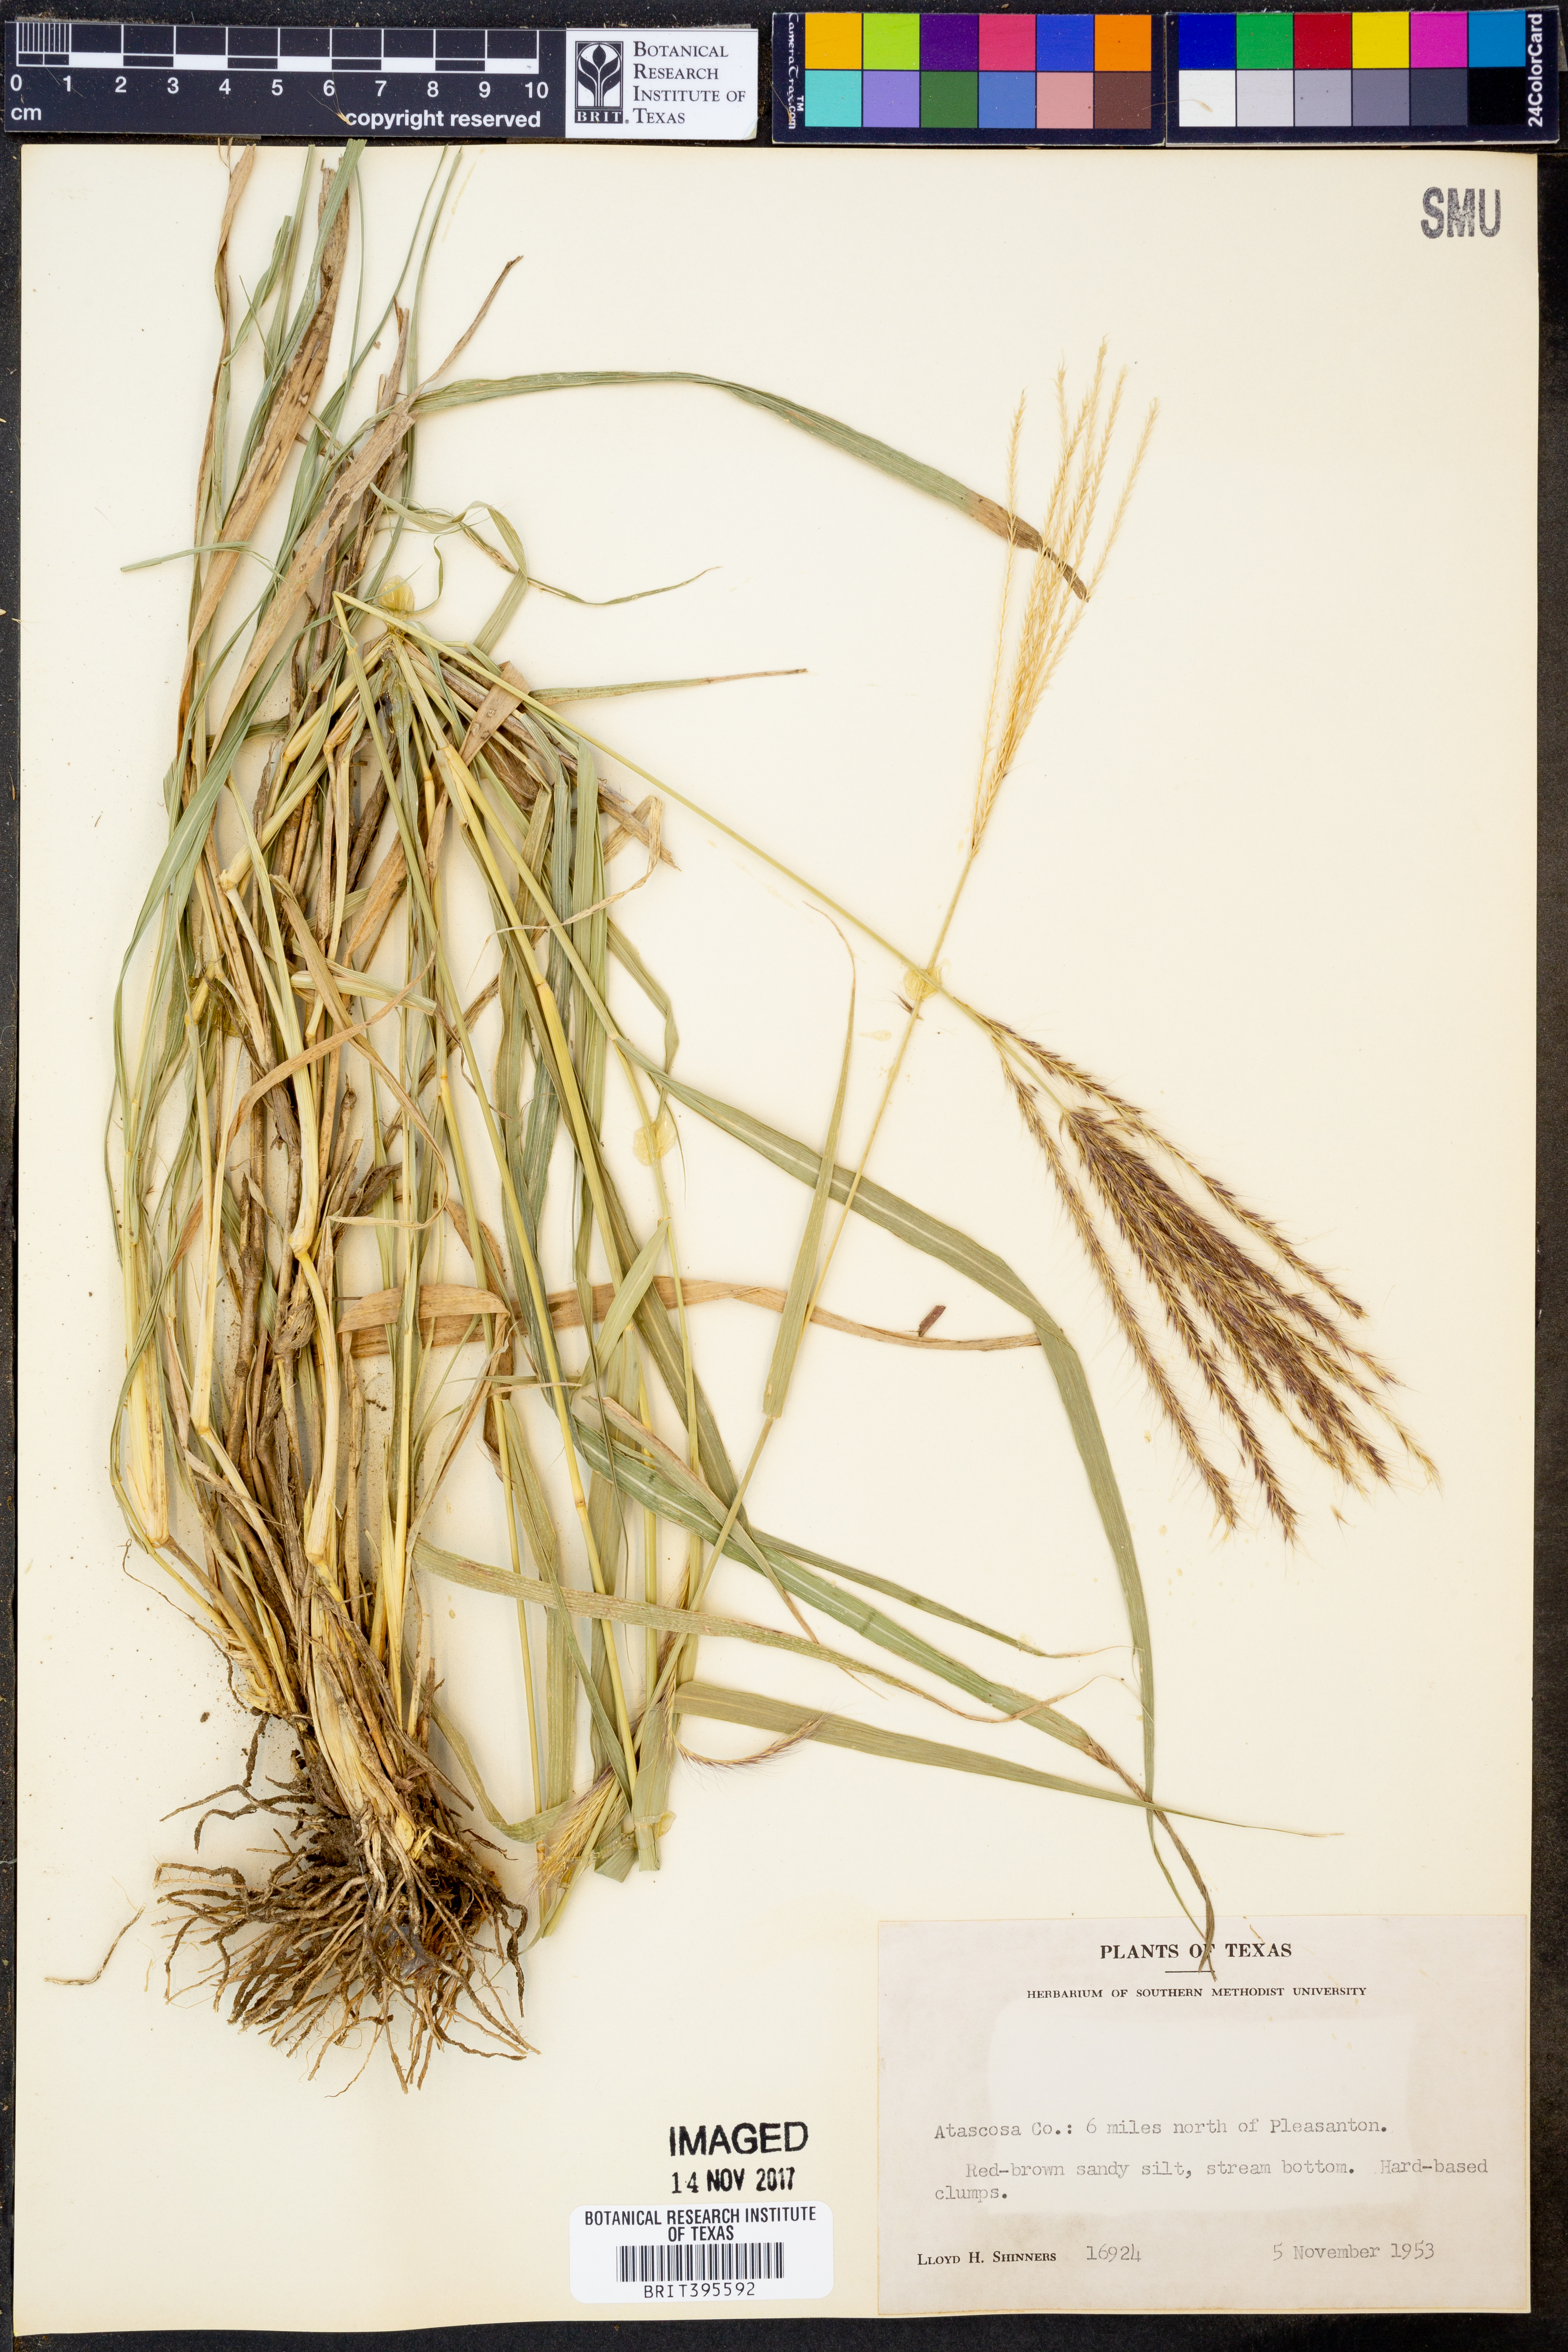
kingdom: Plantae
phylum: Tracheophyta
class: Liliopsida
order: Poales
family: Poaceae
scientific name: Poaceae
